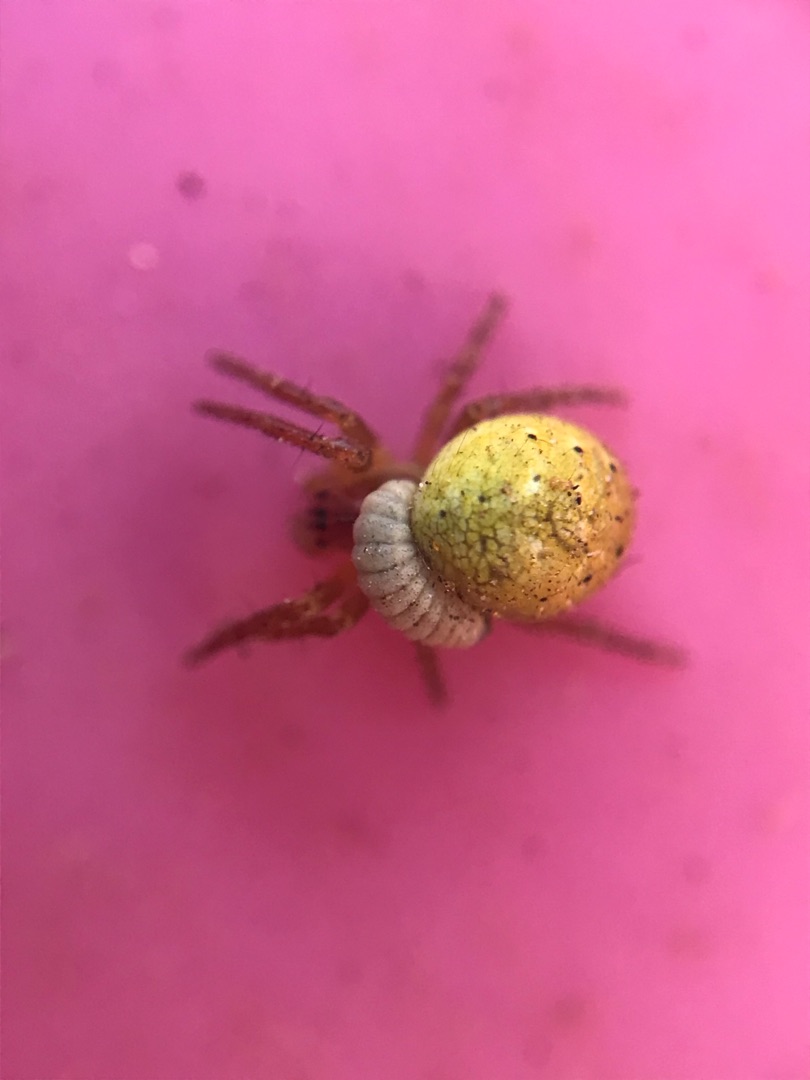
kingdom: Animalia
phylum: Arthropoda
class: Arachnida
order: Araneae
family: Araneidae
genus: Araniella
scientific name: Araniella
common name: Agurkeedderkopslægten
